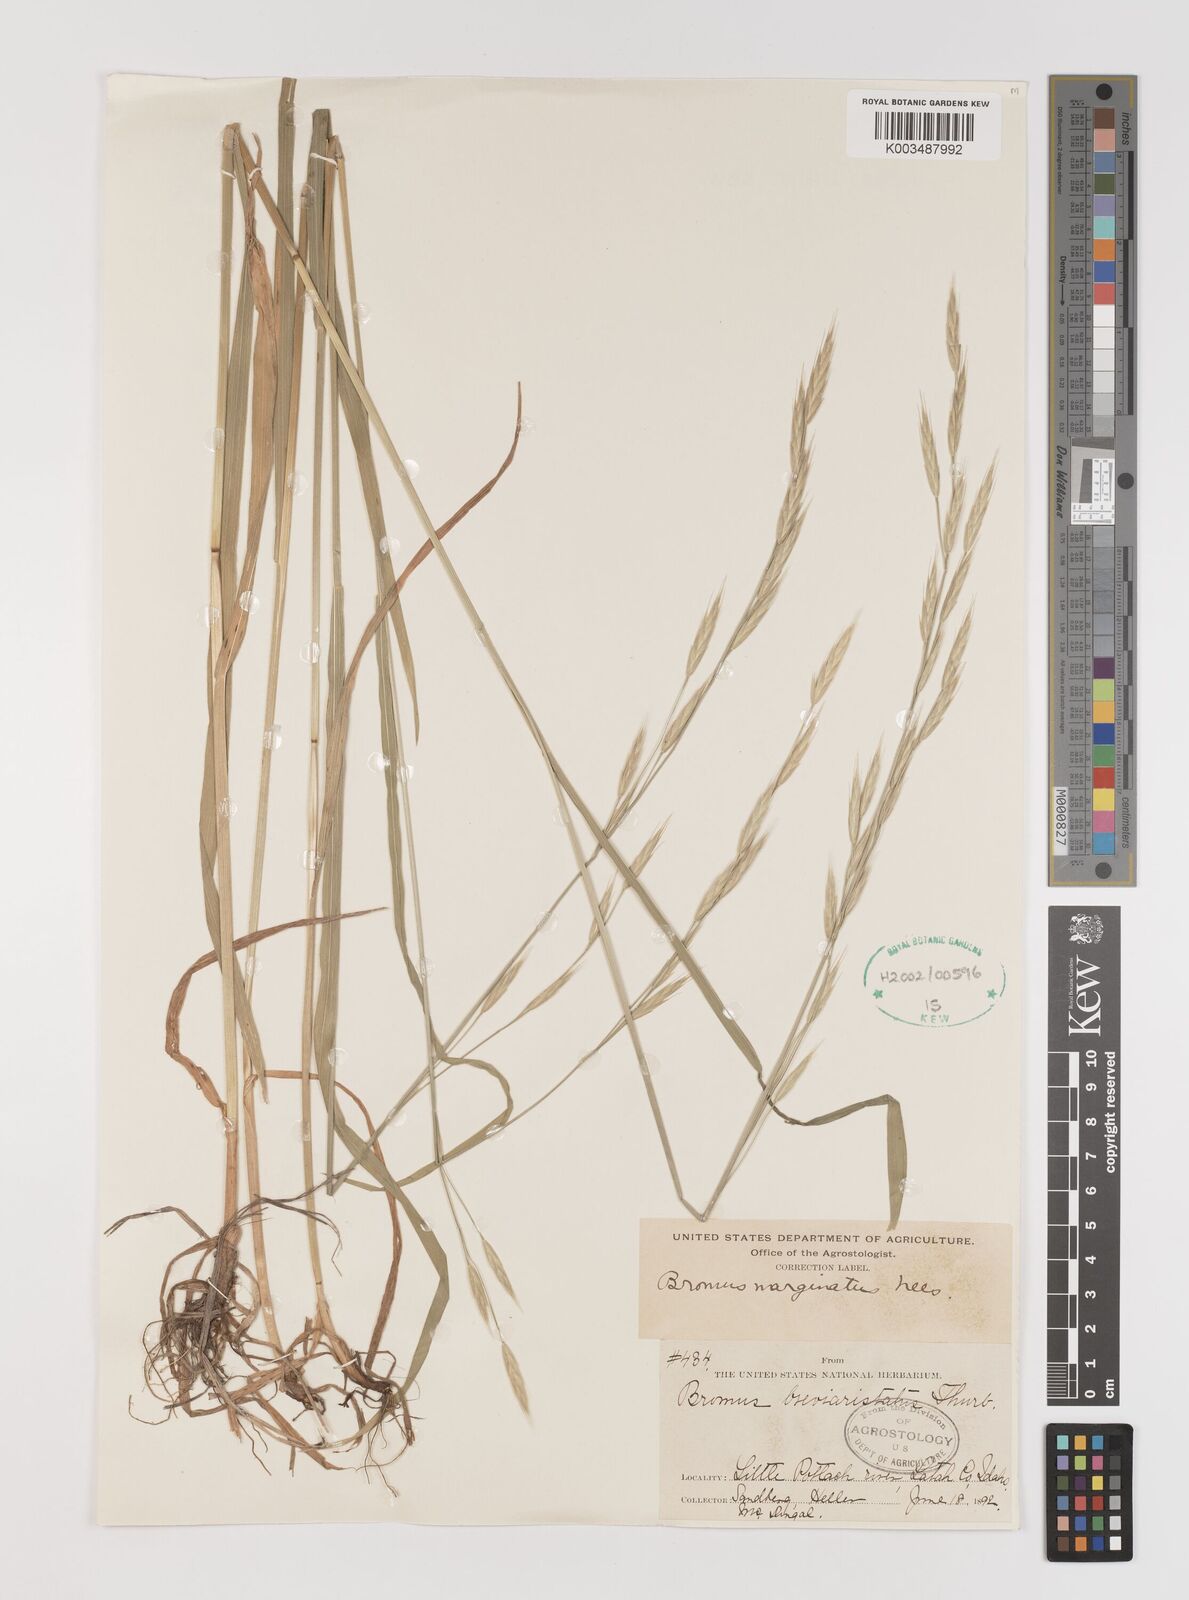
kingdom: Plantae
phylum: Tracheophyta
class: Liliopsida
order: Poales
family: Poaceae
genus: Bromus
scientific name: Bromus marginatus
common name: Western brome
